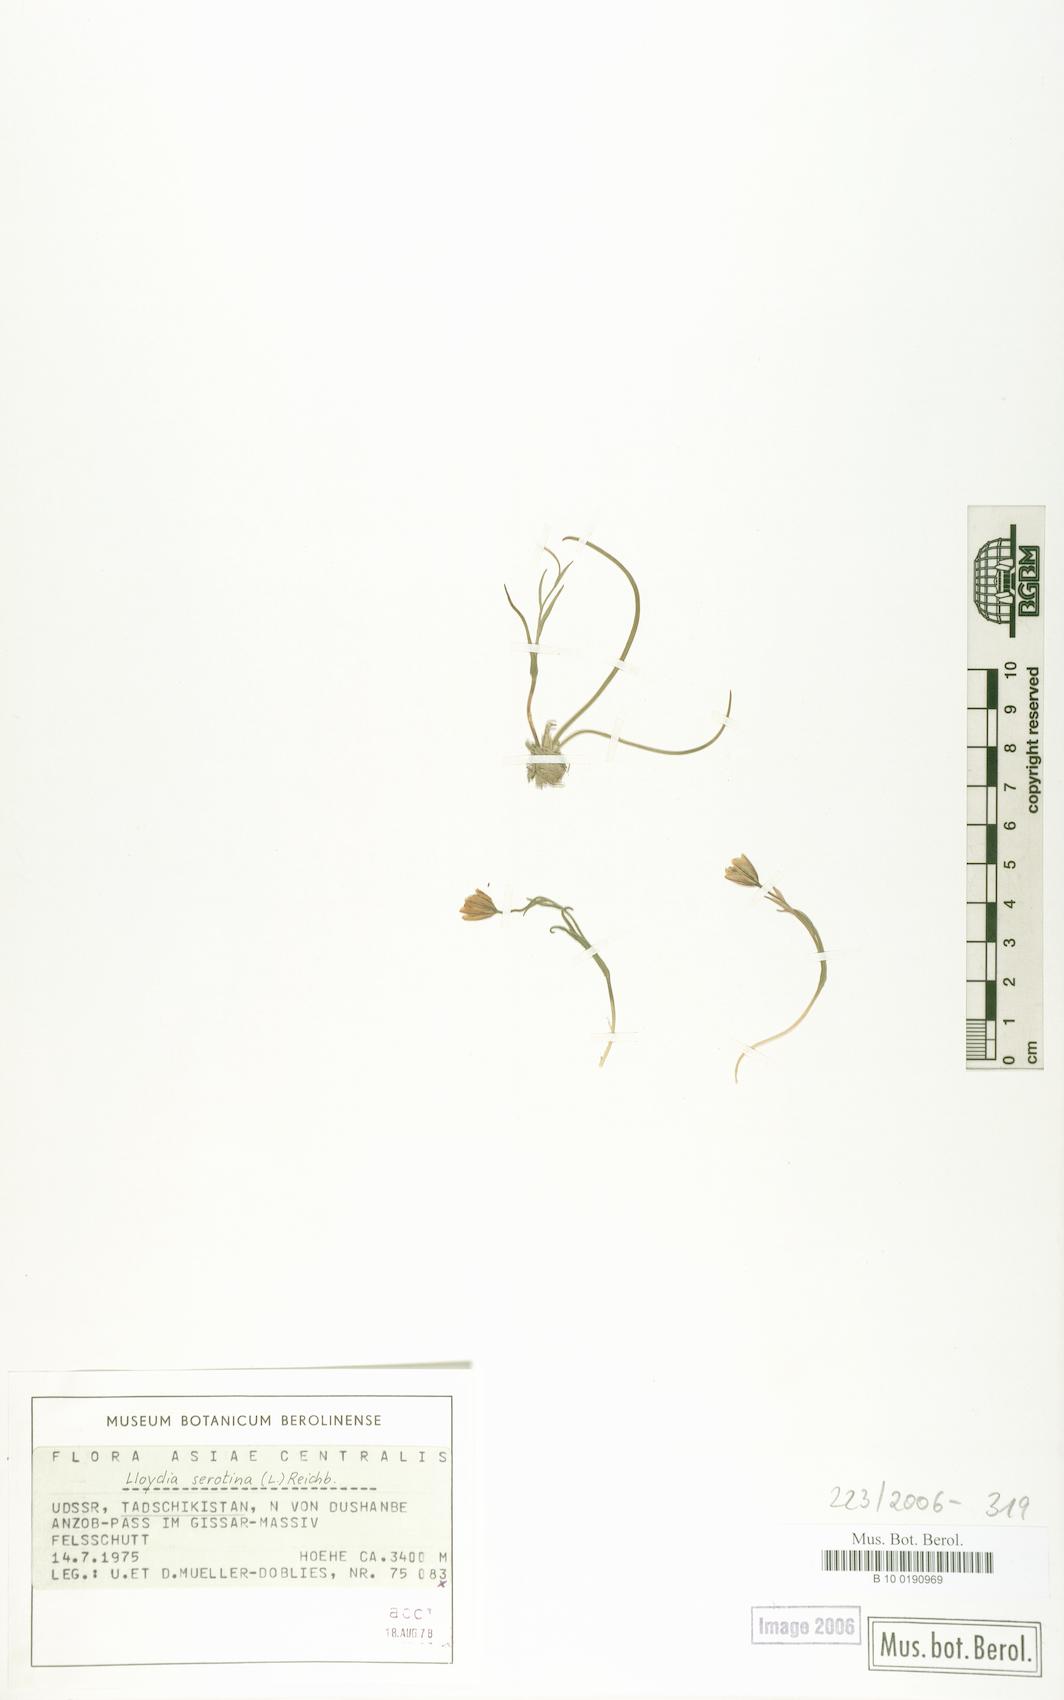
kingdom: Plantae
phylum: Tracheophyta
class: Liliopsida
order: Liliales
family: Liliaceae
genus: Gagea
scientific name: Gagea serotina
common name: Snowdon lily
